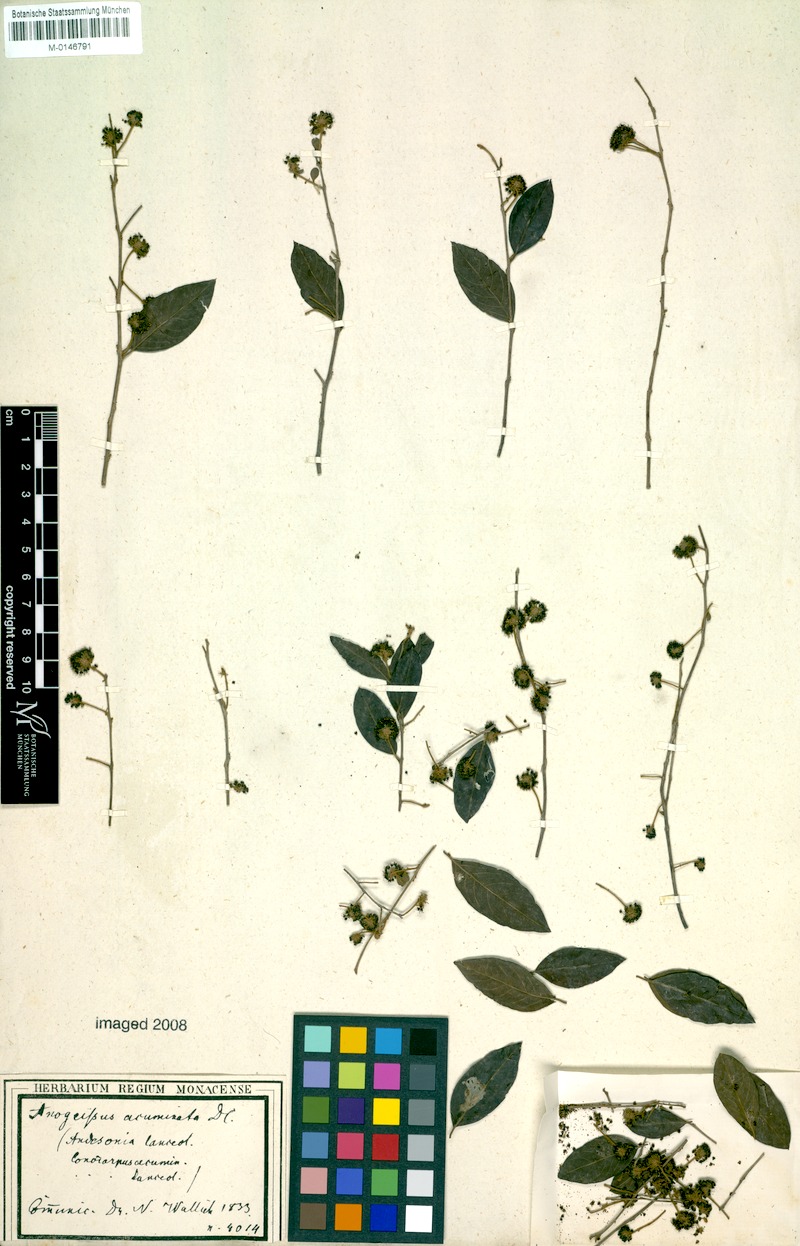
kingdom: Plantae
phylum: Tracheophyta
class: Magnoliopsida
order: Myrtales
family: Combretaceae
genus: Terminalia
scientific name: Terminalia phillyreifolia
